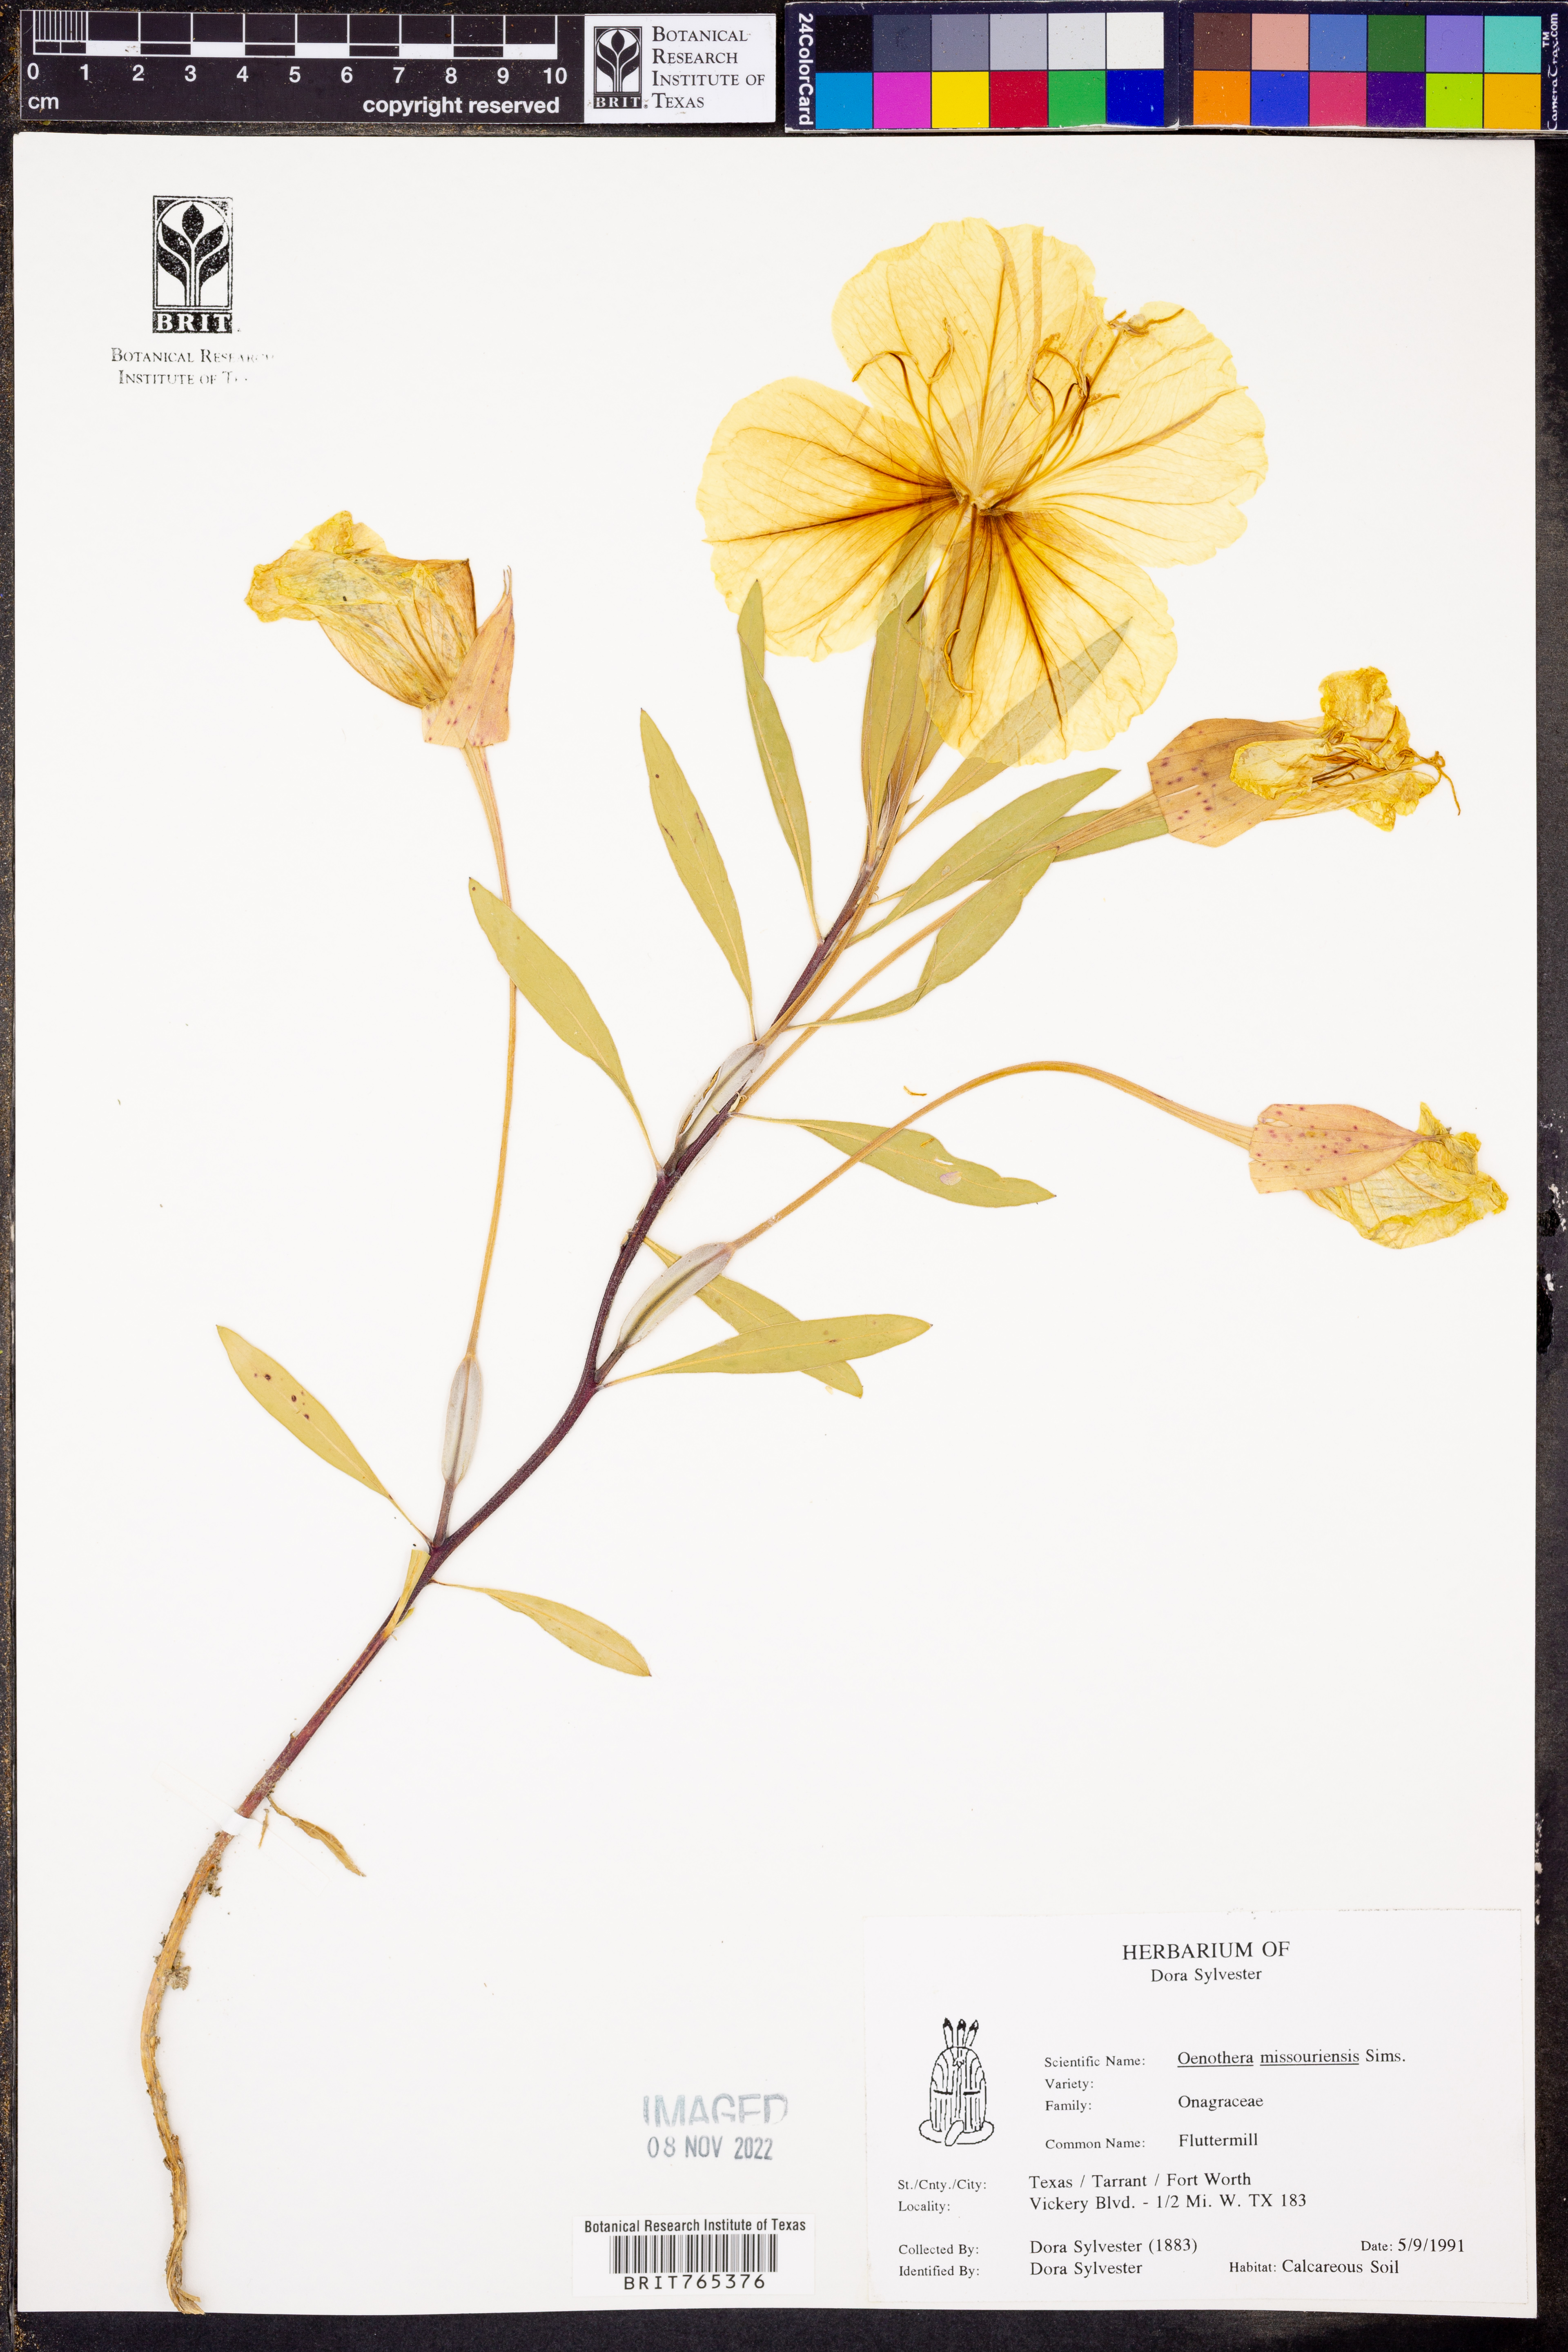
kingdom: Plantae
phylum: Tracheophyta
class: Magnoliopsida
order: Myrtales
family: Onagraceae
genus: Oenothera
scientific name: Oenothera macrocarpa
